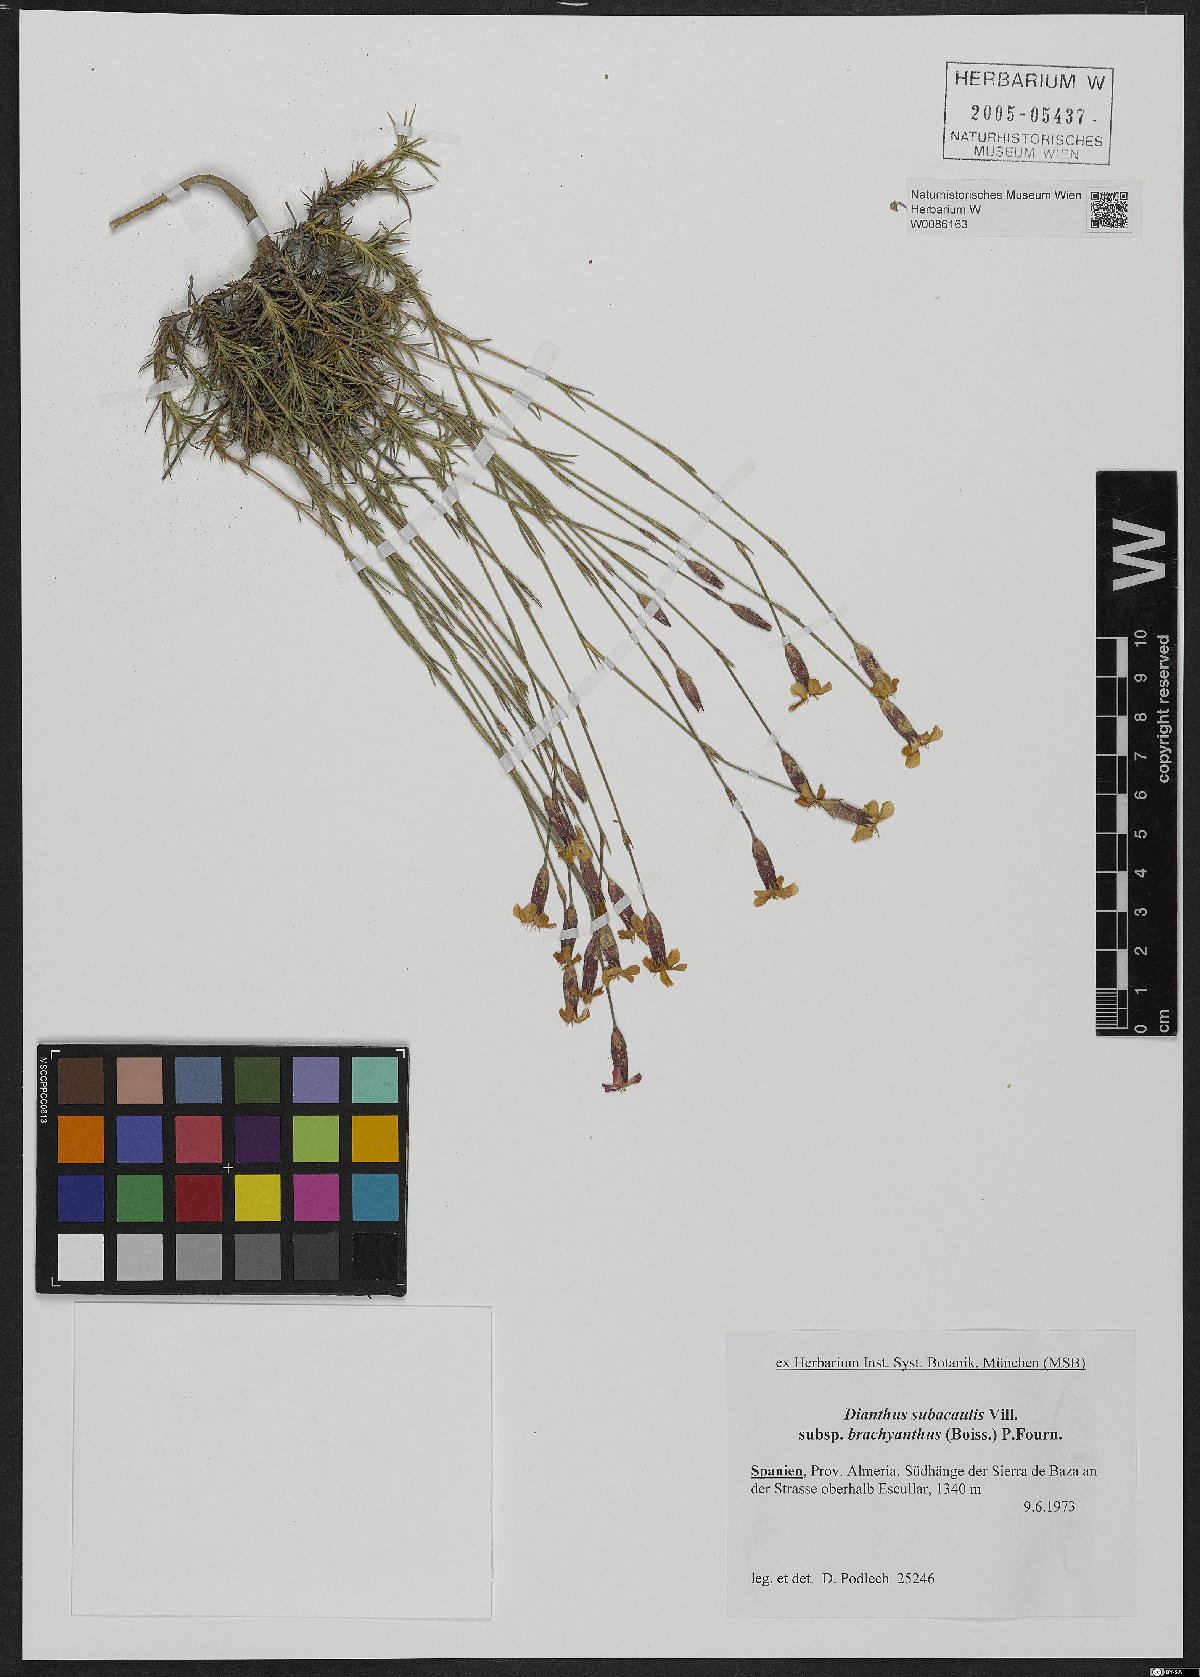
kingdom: Plantae
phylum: Tracheophyta
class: Magnoliopsida
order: Caryophyllales
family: Caryophyllaceae
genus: Dianthus
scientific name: Dianthus pungens
